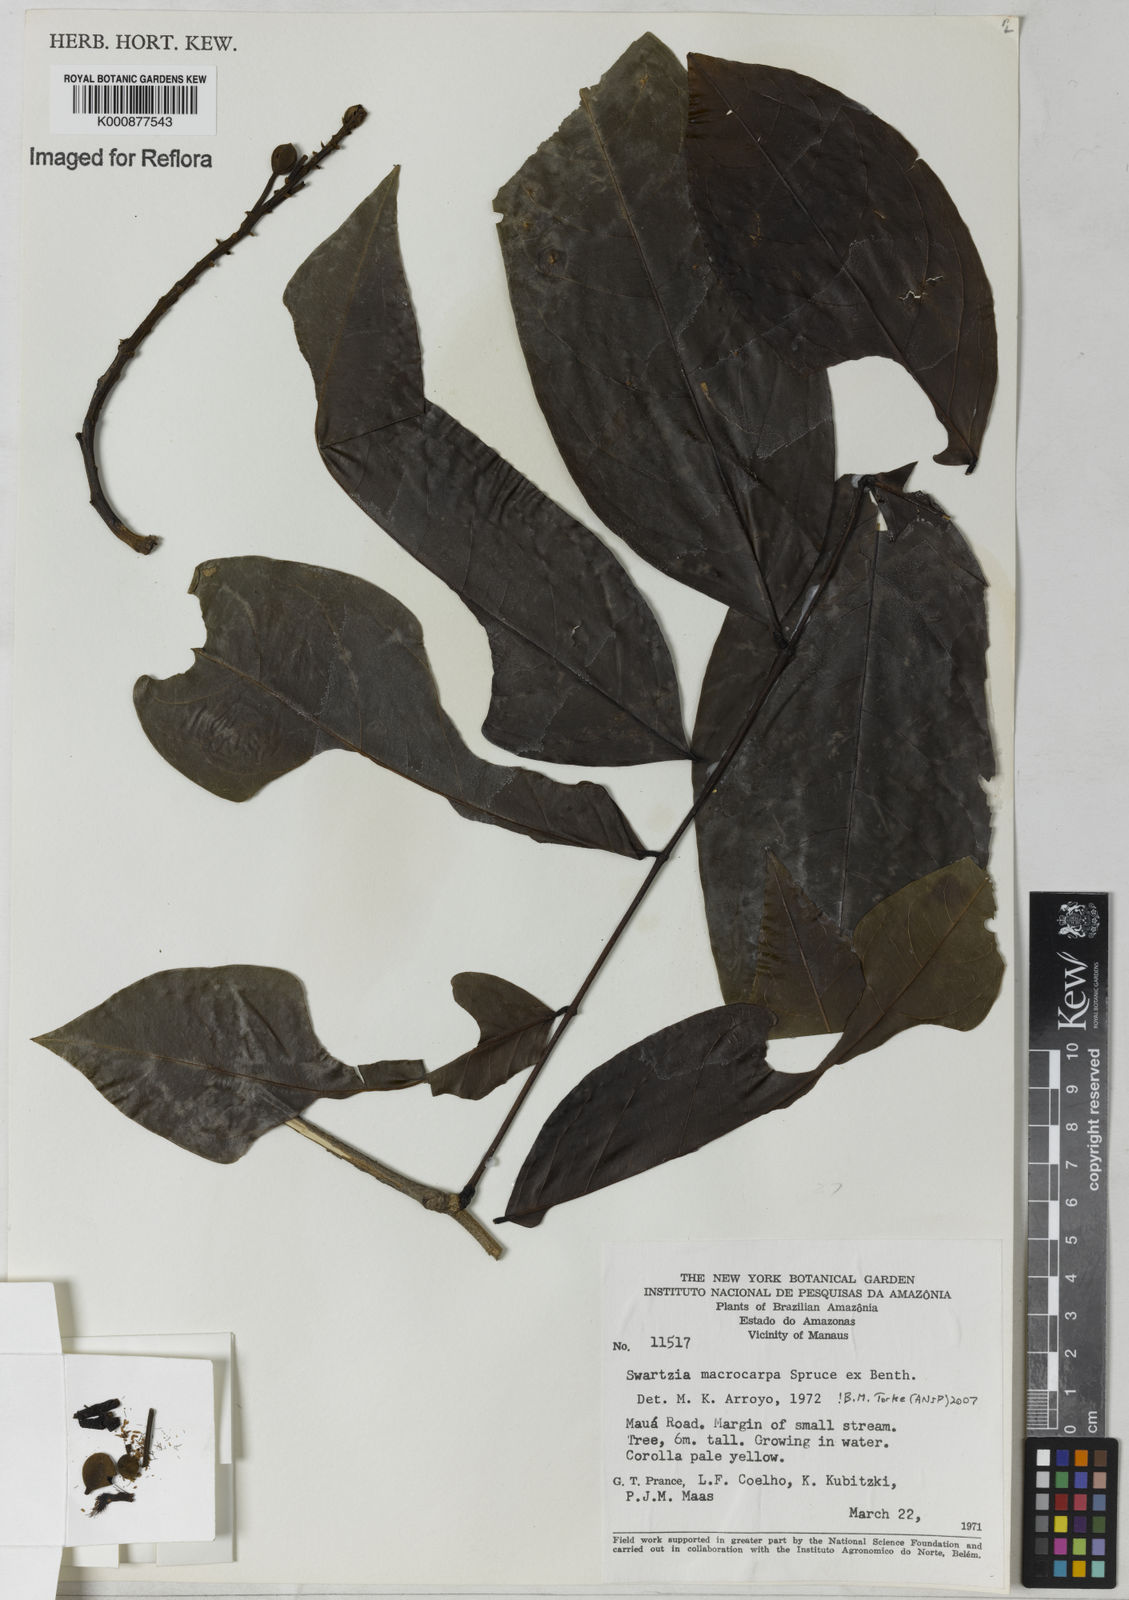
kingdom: Plantae
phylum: Tracheophyta
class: Magnoliopsida
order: Fabales
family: Fabaceae
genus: Swartzia
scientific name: Swartzia macrocarpa
